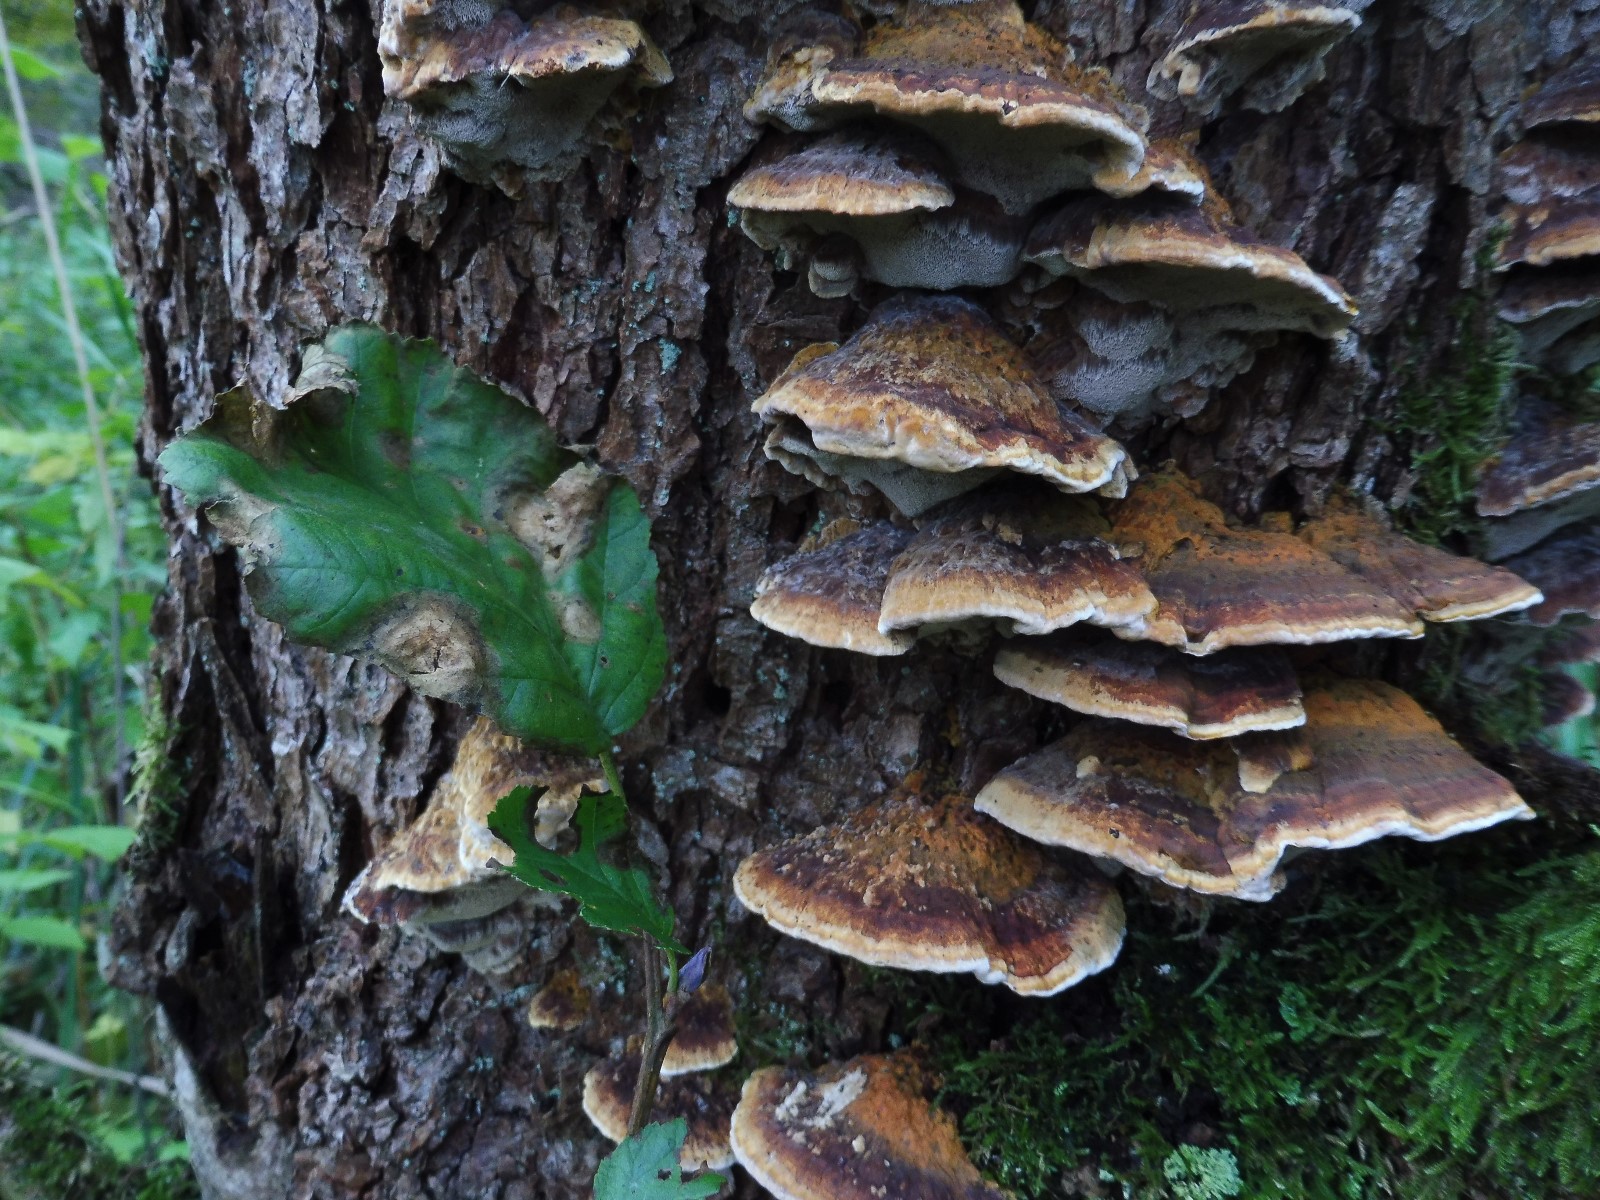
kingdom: Fungi
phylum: Basidiomycota
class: Agaricomycetes
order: Hymenochaetales
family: Hymenochaetaceae
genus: Xanthoporia
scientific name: Xanthoporia radiata
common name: elle-spejlporesvamp
